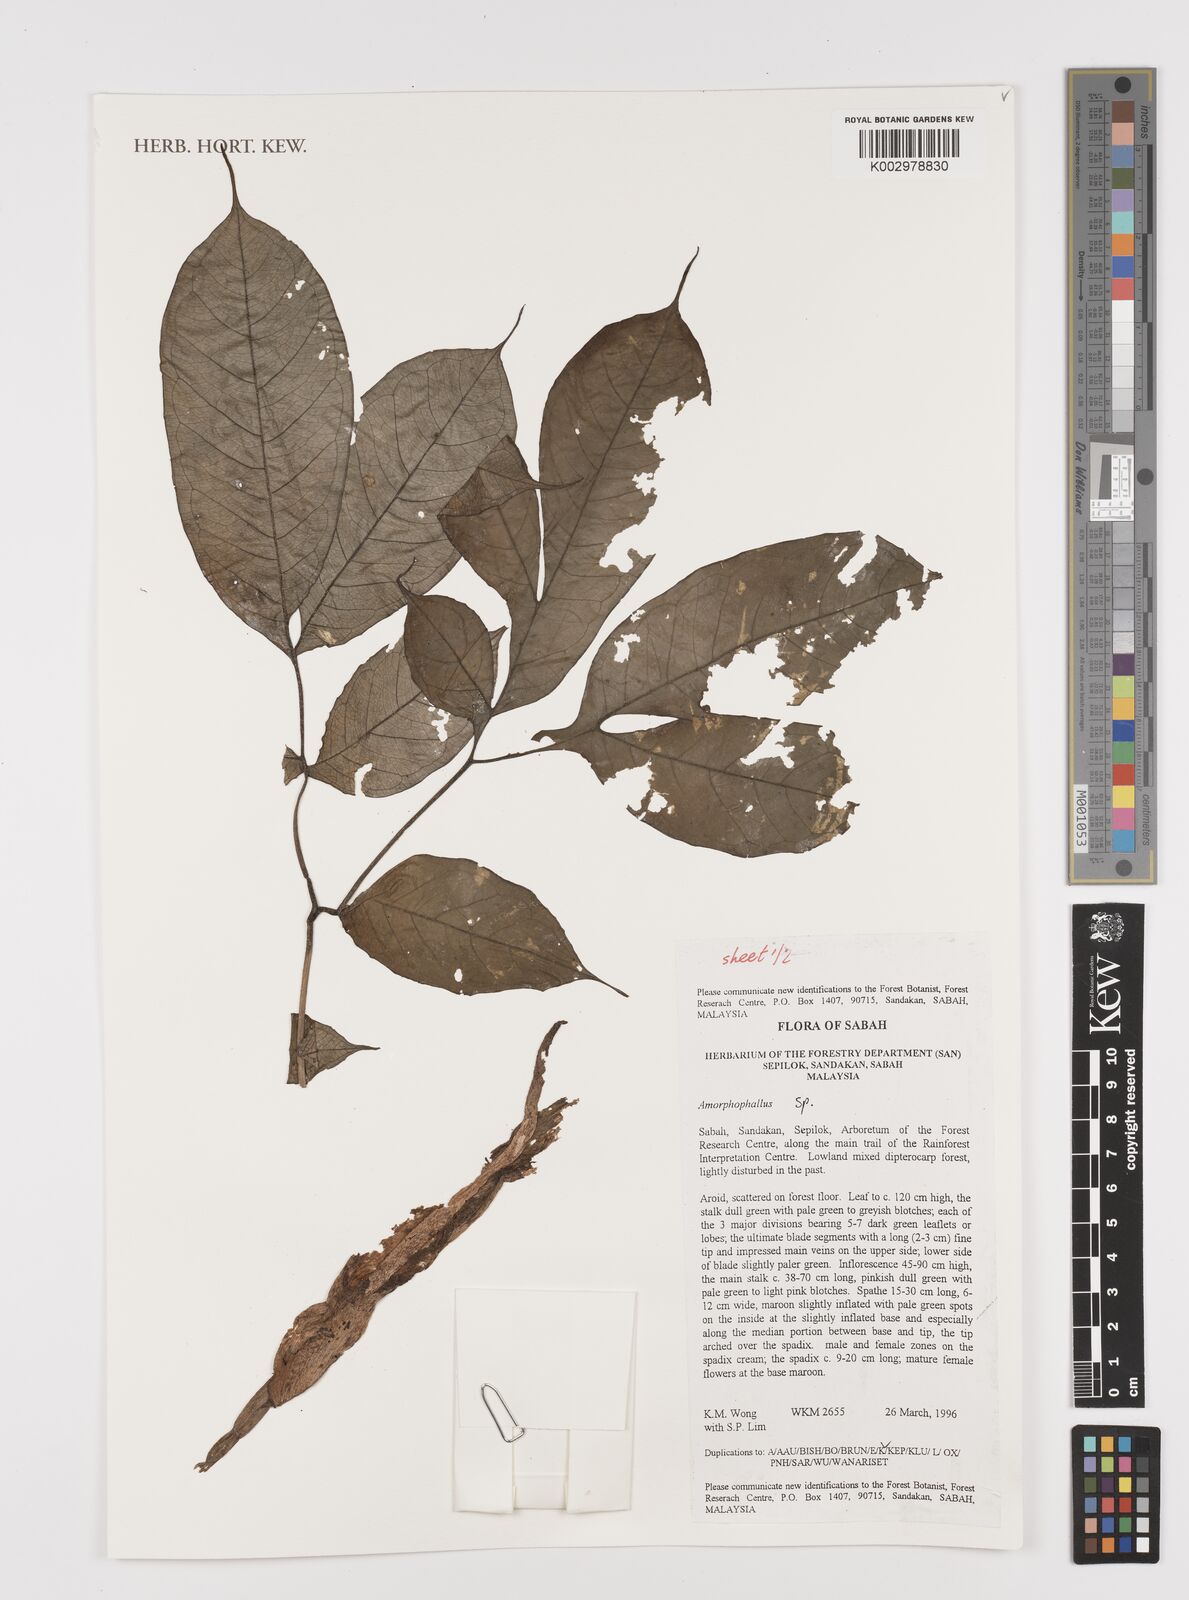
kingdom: Plantae
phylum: Tracheophyta
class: Liliopsida
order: Alismatales
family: Araceae
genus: Amorphophallus
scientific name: Amorphophallus
